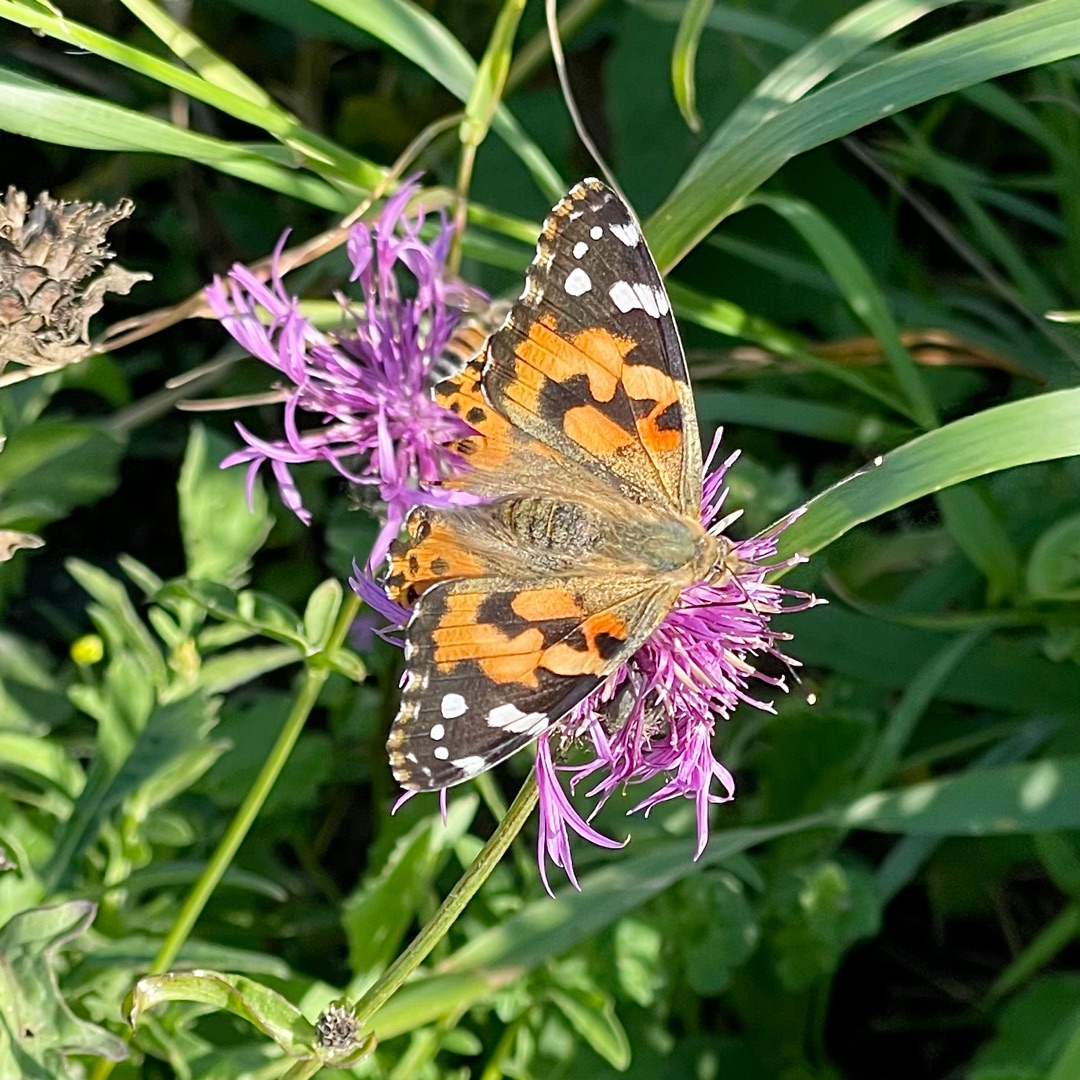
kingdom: Animalia
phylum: Arthropoda
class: Insecta
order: Lepidoptera
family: Nymphalidae
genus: Vanessa
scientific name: Vanessa cardui
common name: Tidselsommerfugl
